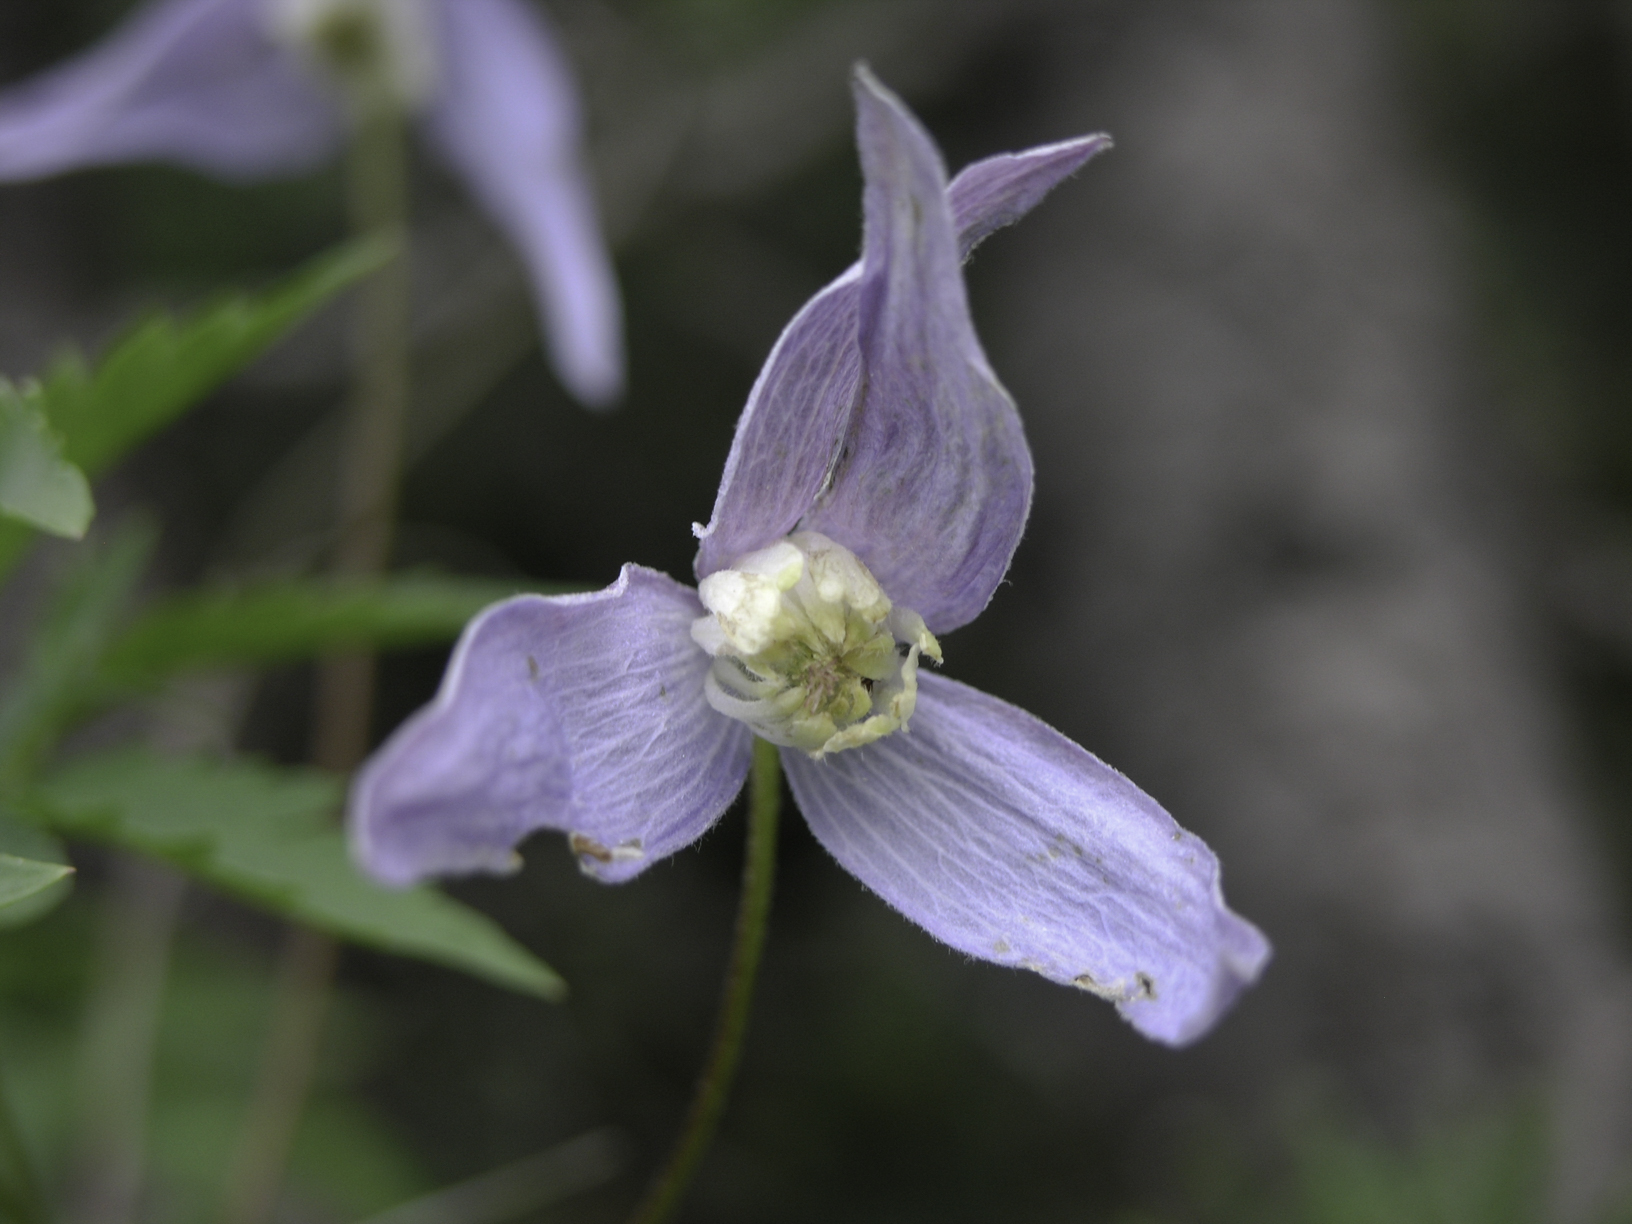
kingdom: Plantae
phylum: Tracheophyta
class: Magnoliopsida
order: Ranunculales
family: Ranunculaceae
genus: Clematis
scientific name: Clematis alpina
